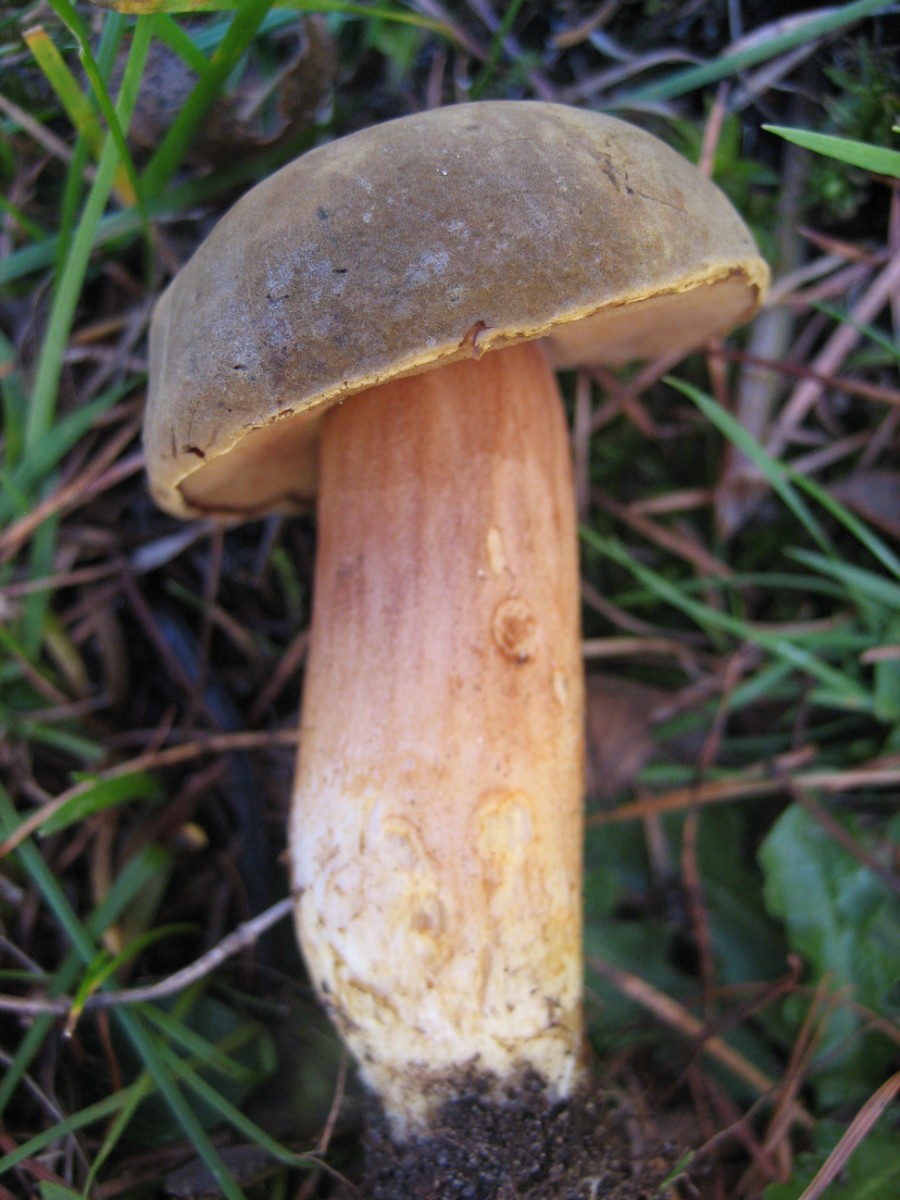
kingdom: Fungi
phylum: Basidiomycota
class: Agaricomycetes
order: Boletales
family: Boletaceae
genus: Xerocomus
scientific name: Xerocomus
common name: filtrørhat
